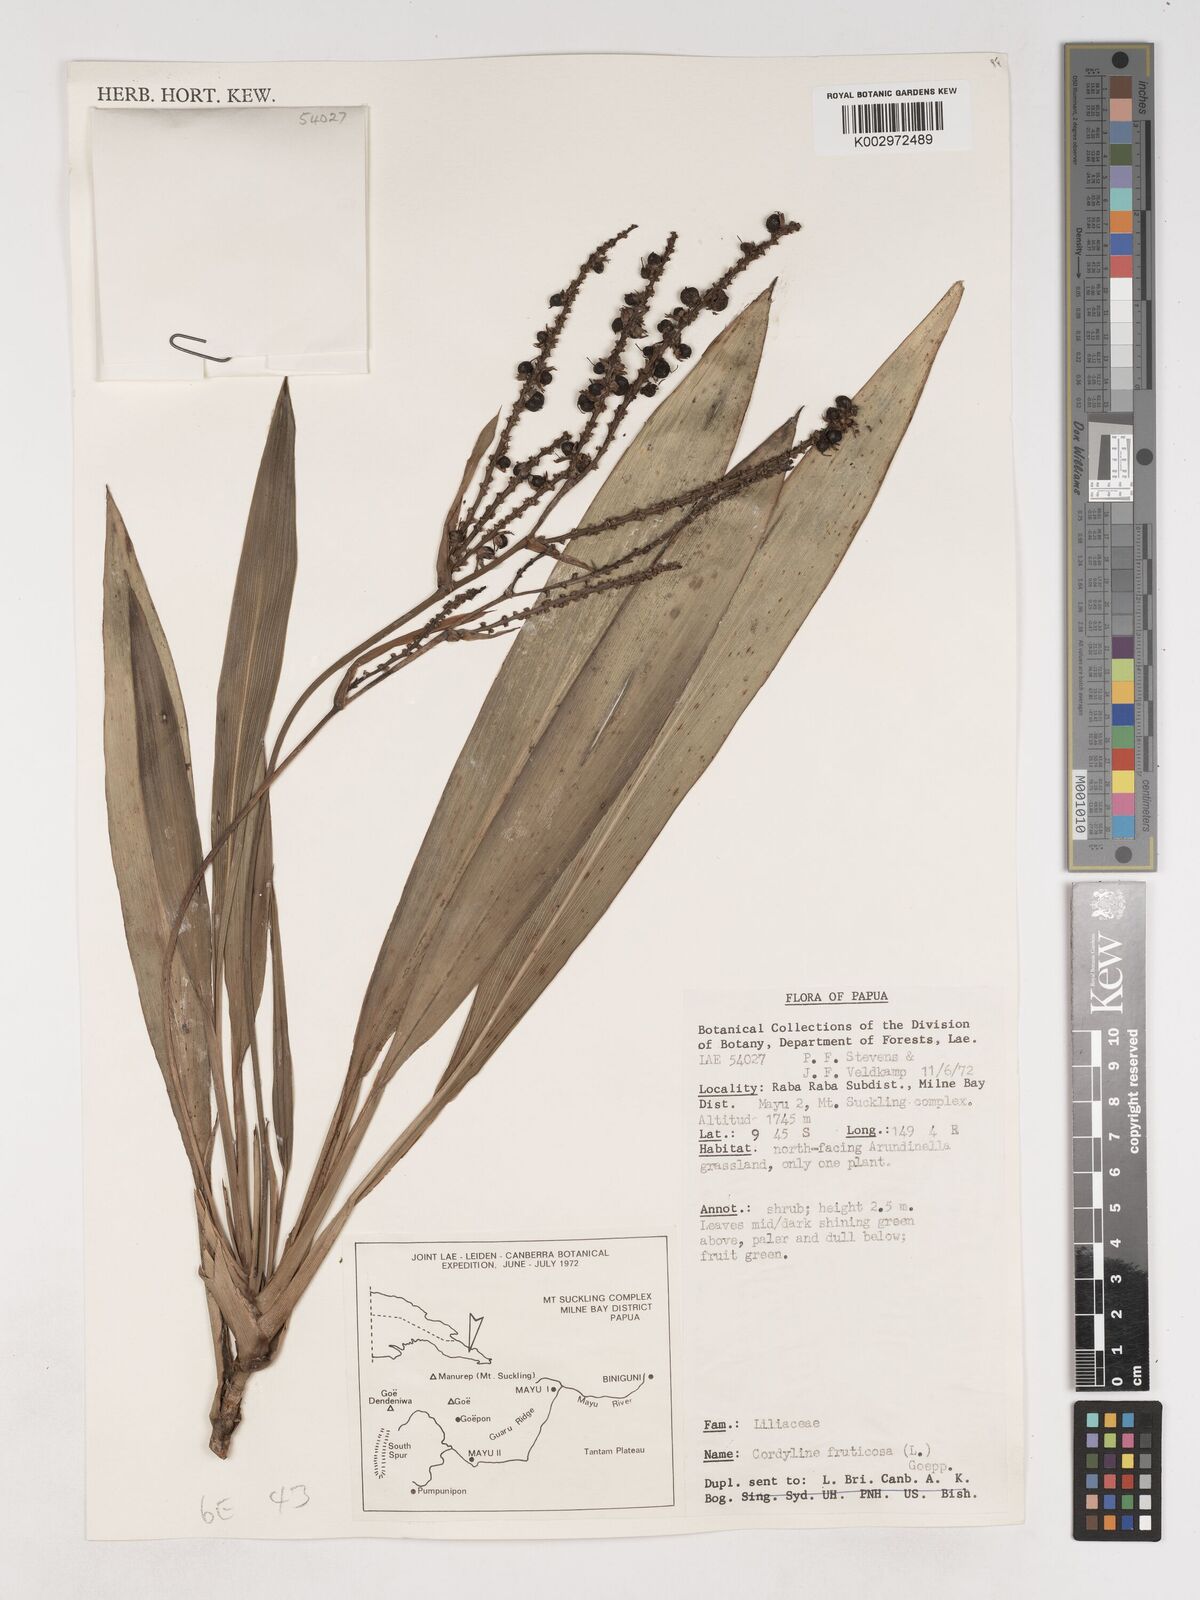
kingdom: Plantae
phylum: Tracheophyta
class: Liliopsida
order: Asparagales
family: Asparagaceae
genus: Cordyline
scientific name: Cordyline fruticosa
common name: Good-luck-plant
